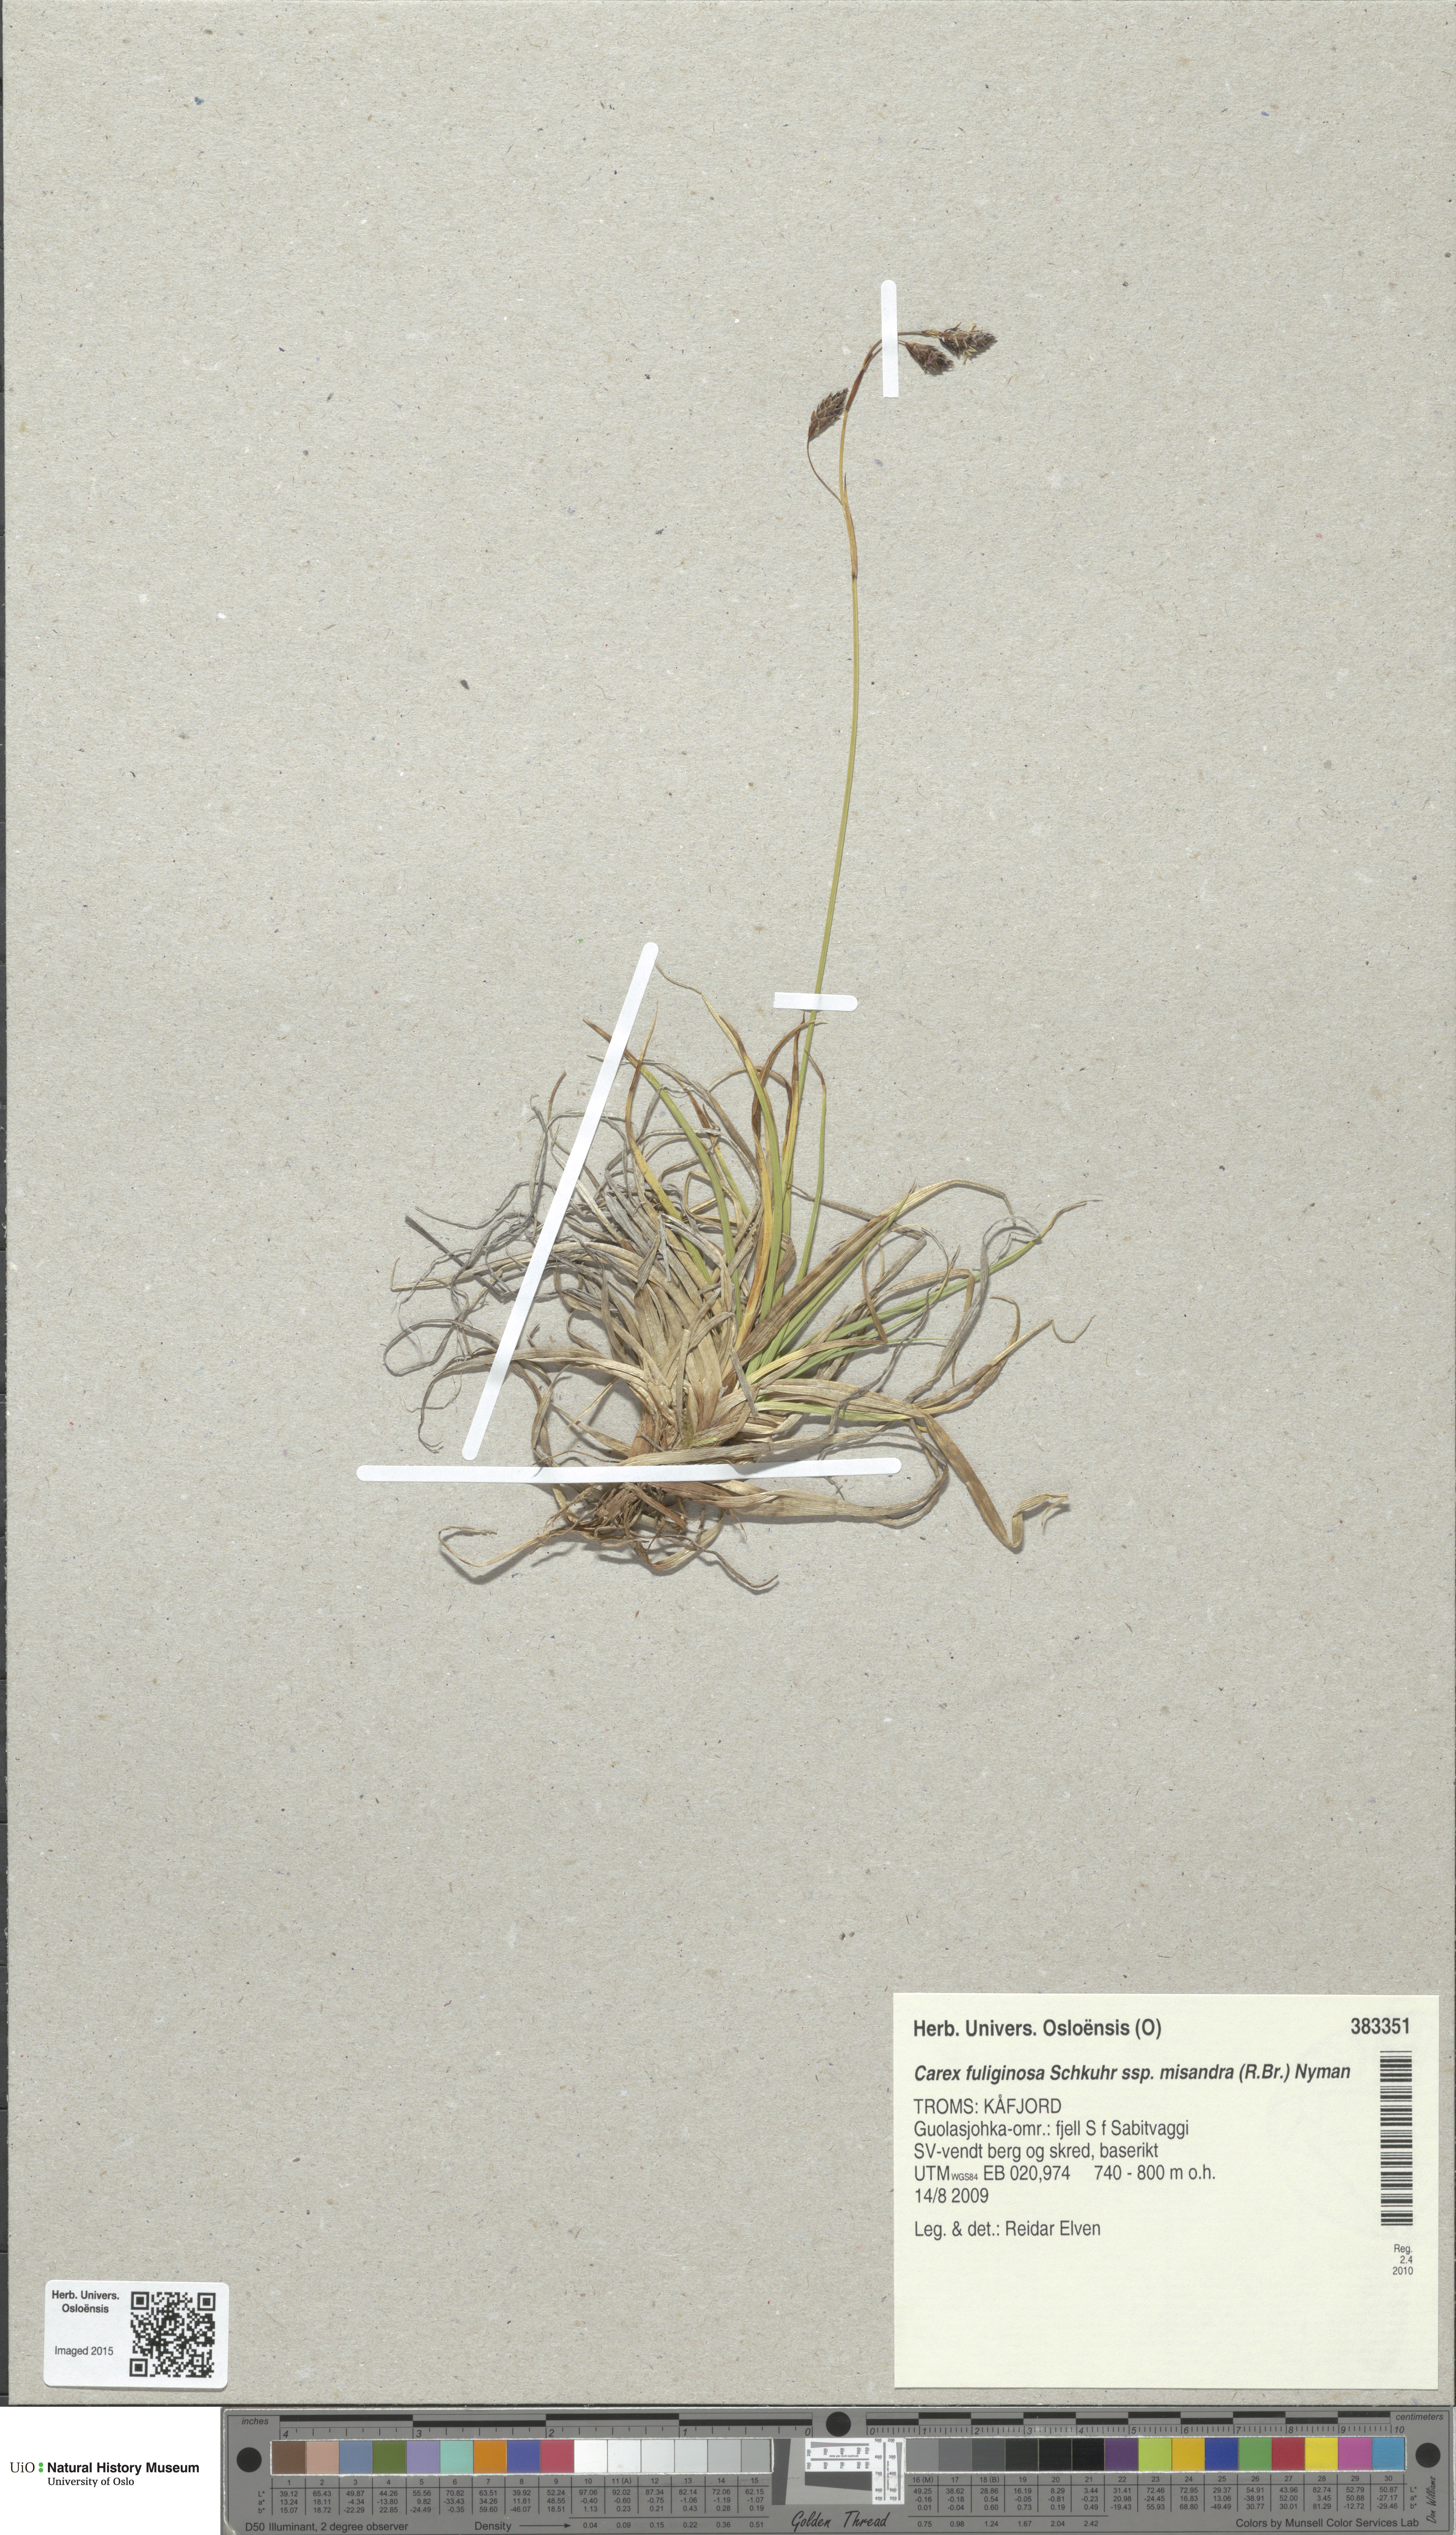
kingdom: Plantae
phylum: Tracheophyta
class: Liliopsida
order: Poales
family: Cyperaceae
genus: Carex
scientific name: Carex fuliginosa
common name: Few-flowered sedge
